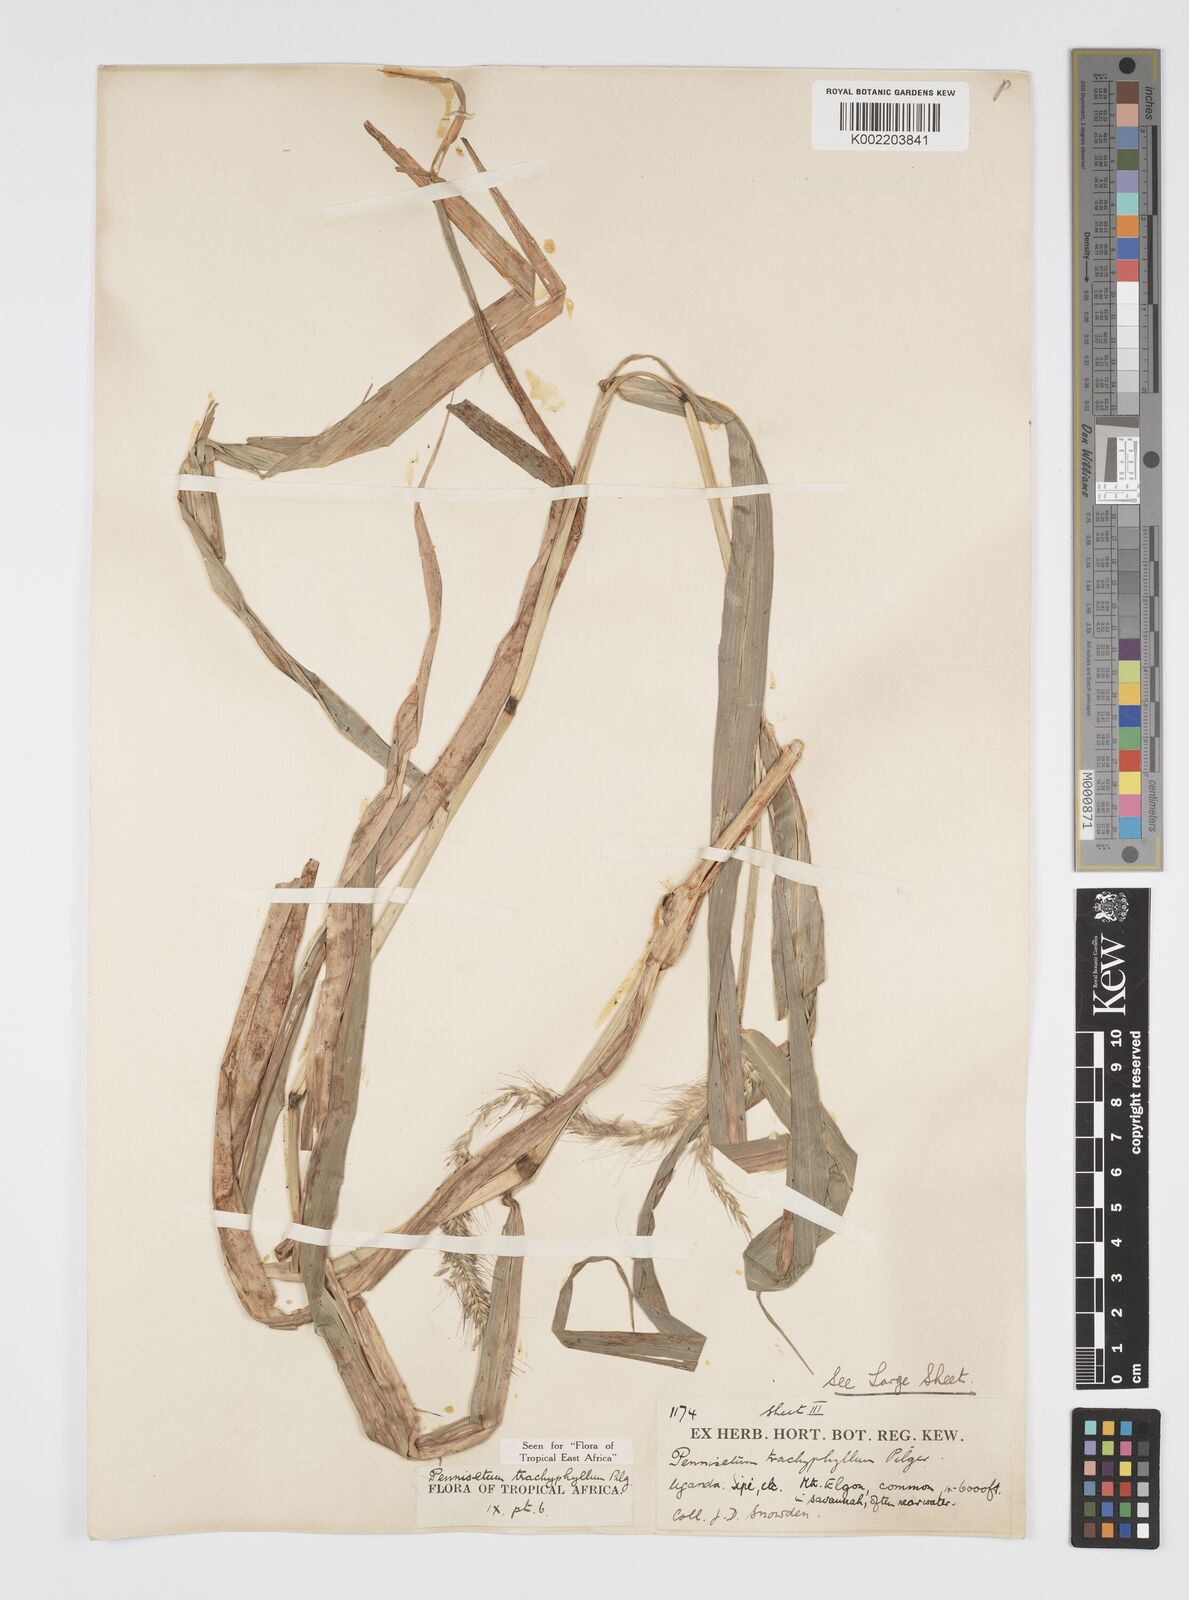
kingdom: Plantae
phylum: Tracheophyta
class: Liliopsida
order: Poales
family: Poaceae
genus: Cenchrus
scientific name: Cenchrus trachyphyllus
